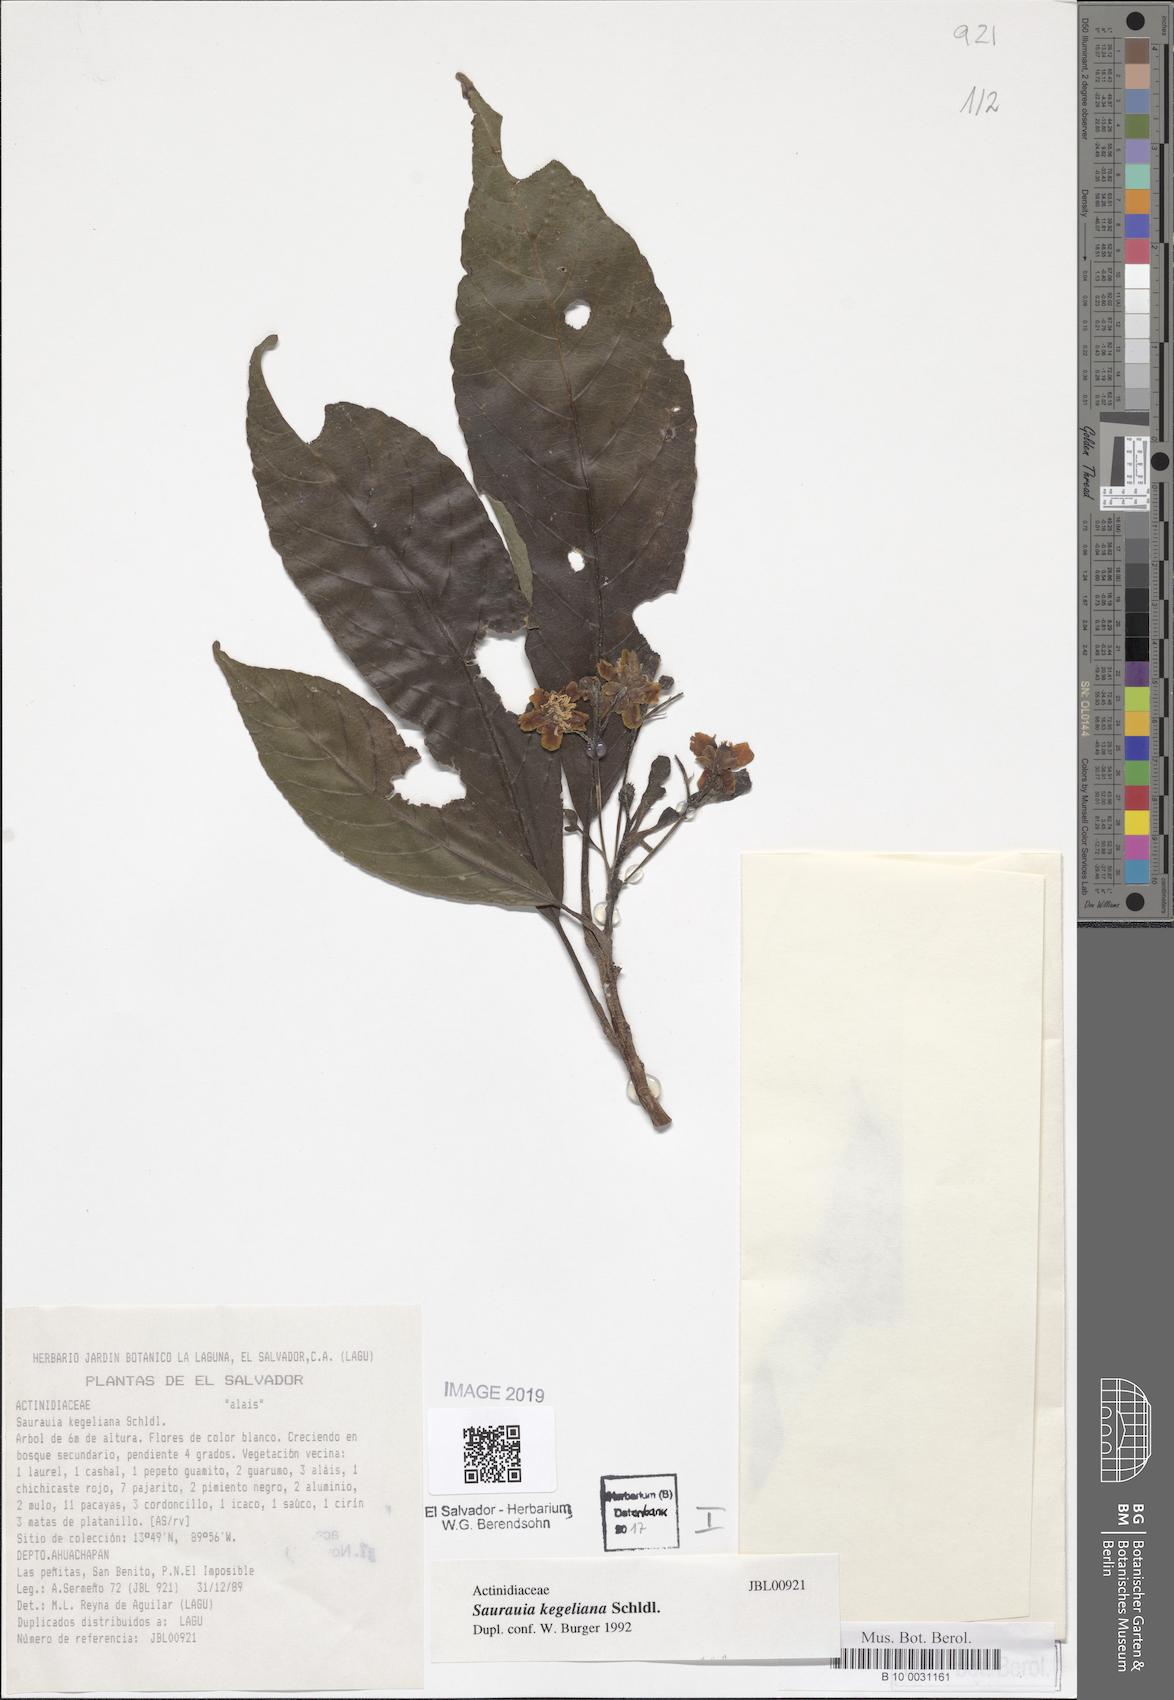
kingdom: Plantae
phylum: Tracheophyta
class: Magnoliopsida
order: Ericales
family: Actinidiaceae
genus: Saurauia
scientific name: Saurauia kegeliana
